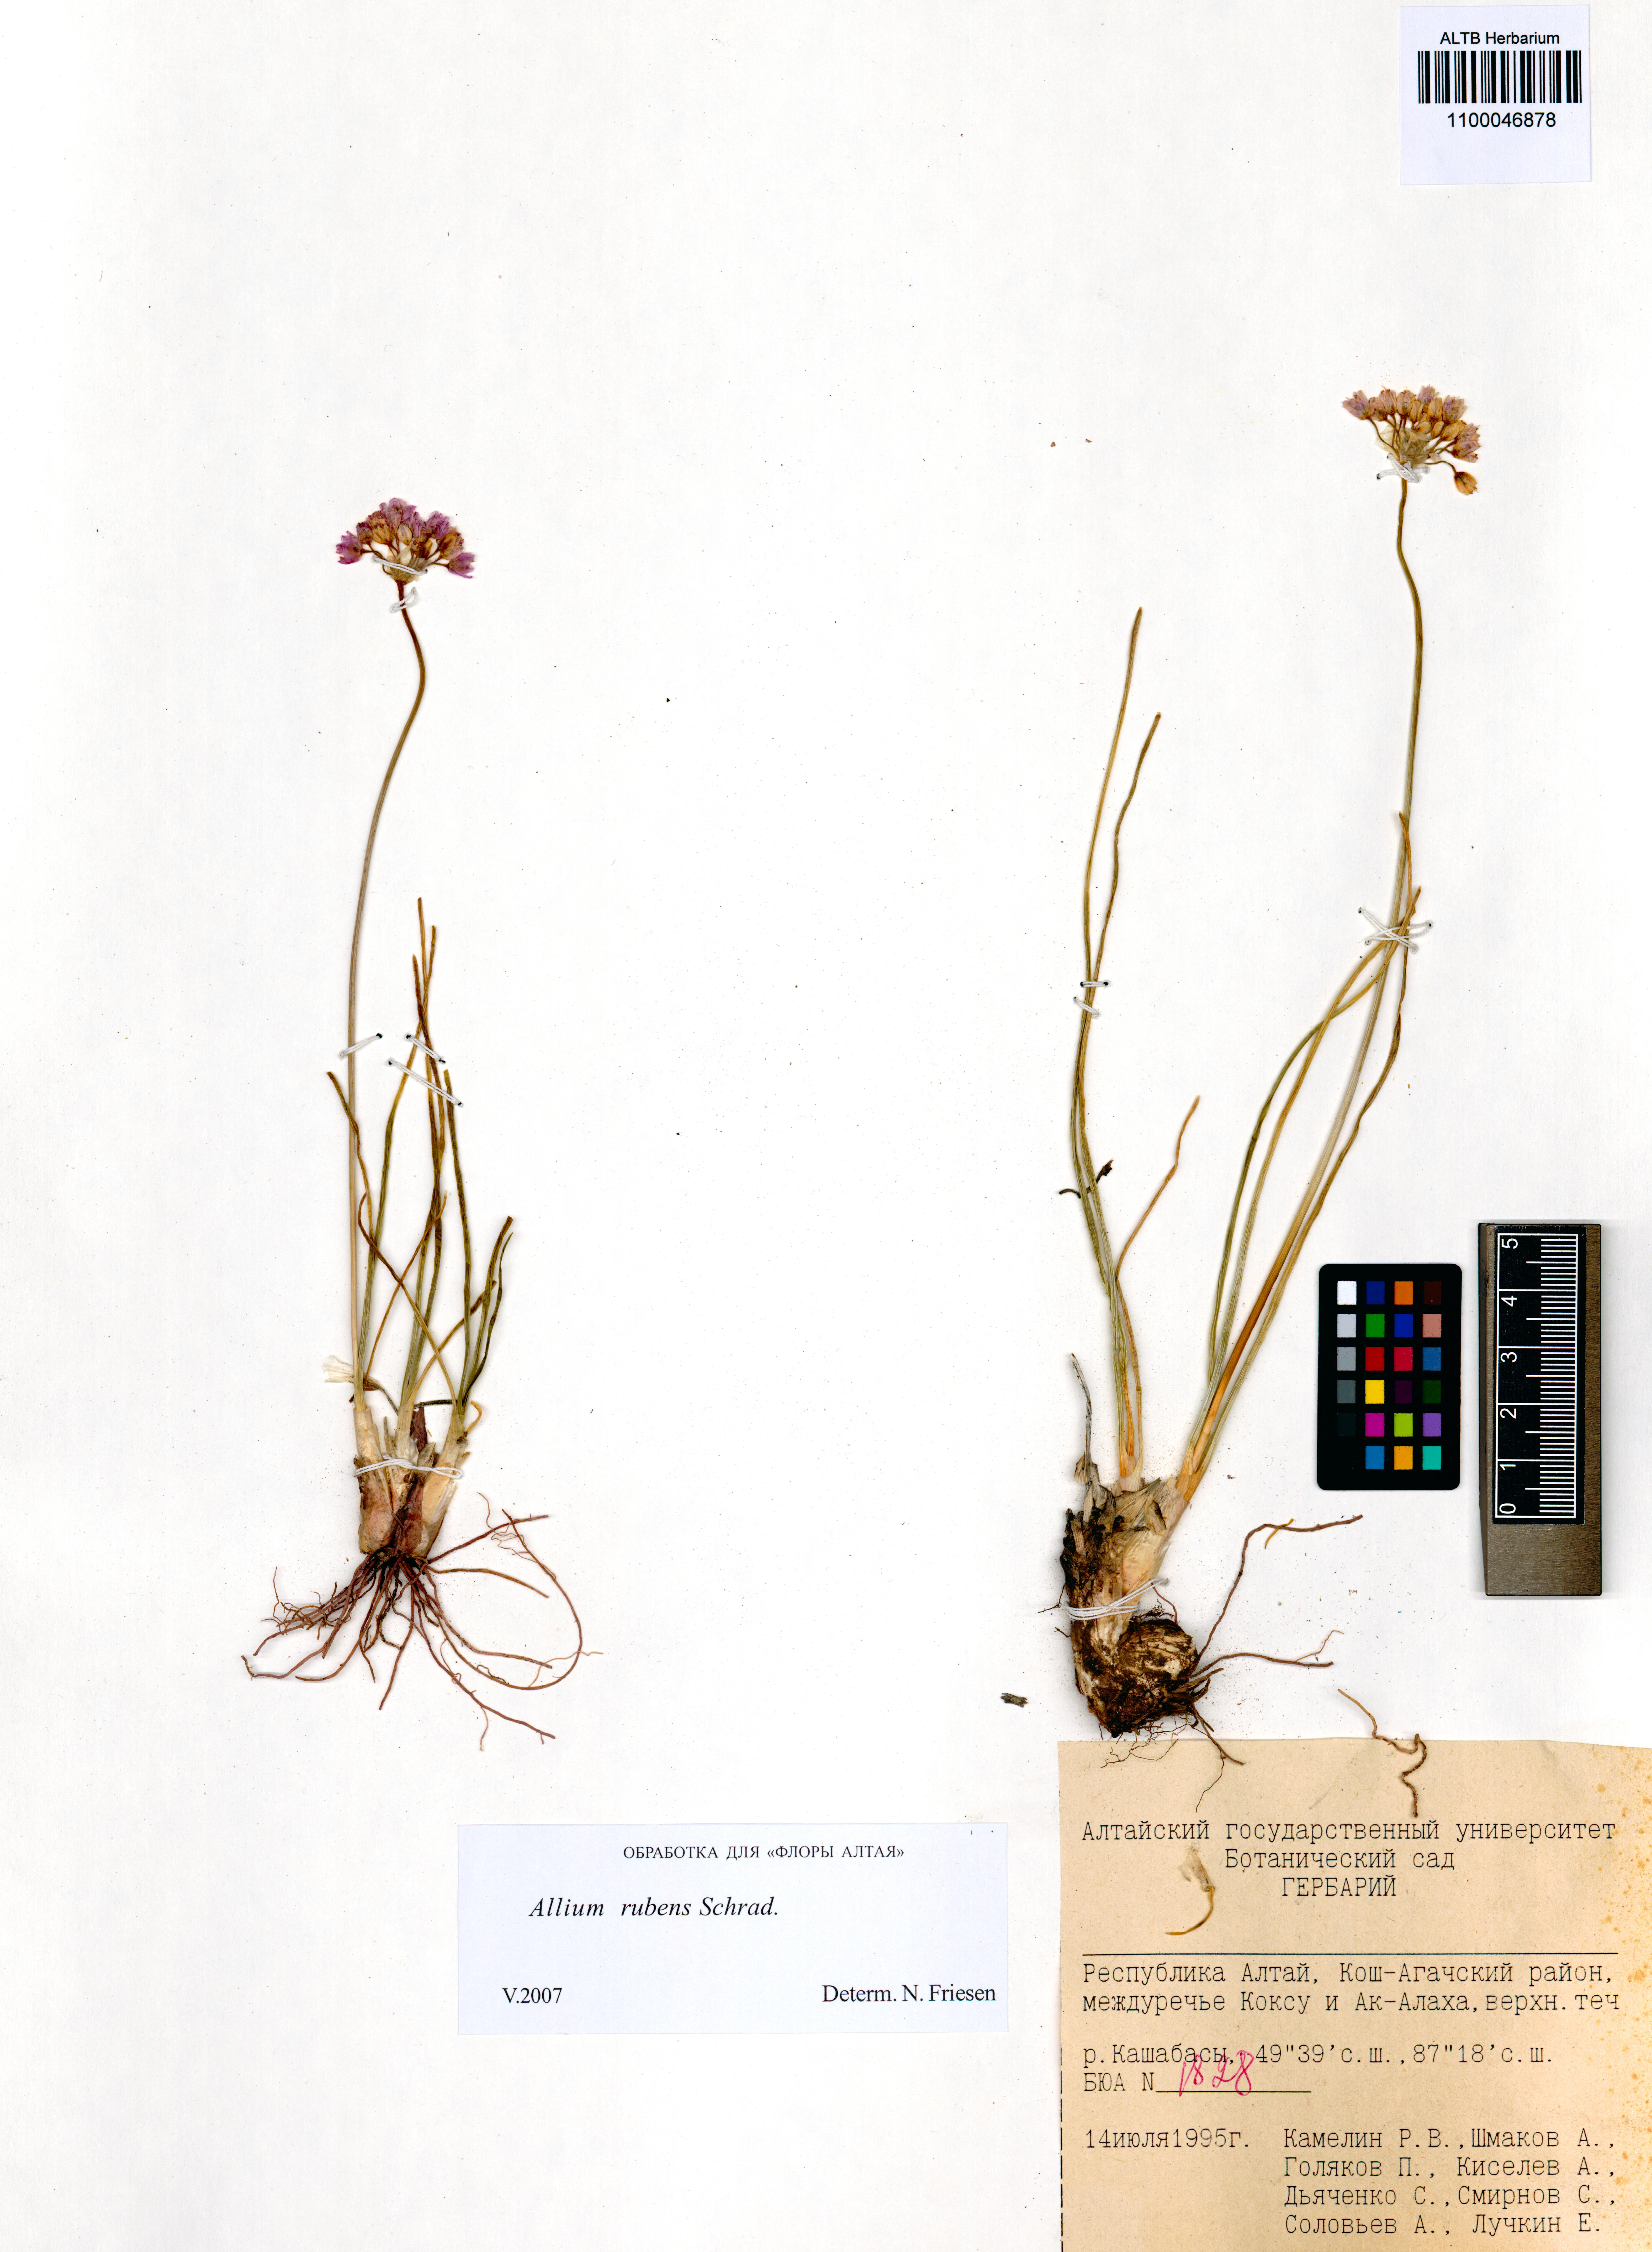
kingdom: Plantae
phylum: Tracheophyta
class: Liliopsida
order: Asparagales
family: Amaryllidaceae
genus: Allium
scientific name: Allium rubens
